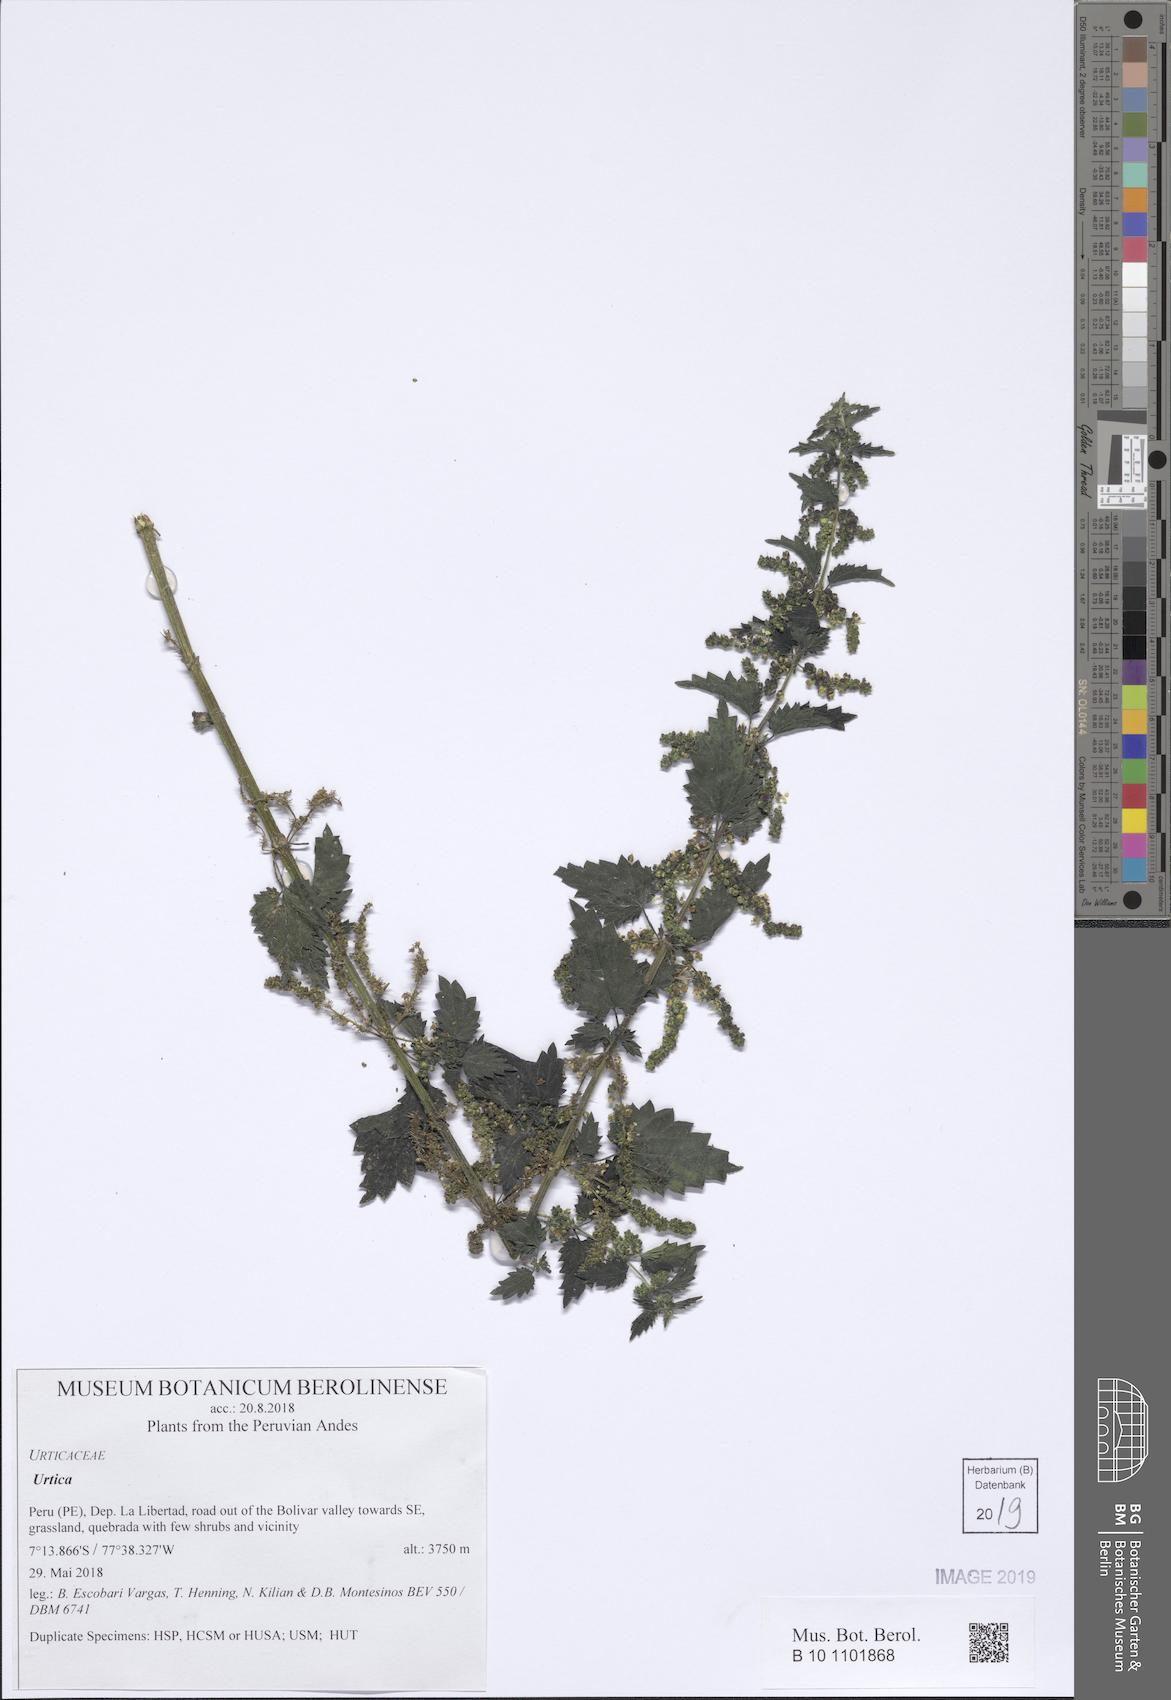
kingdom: Plantae
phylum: Tracheophyta
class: Magnoliopsida
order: Rosales
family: Urticaceae
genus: Urtica
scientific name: Urtica
